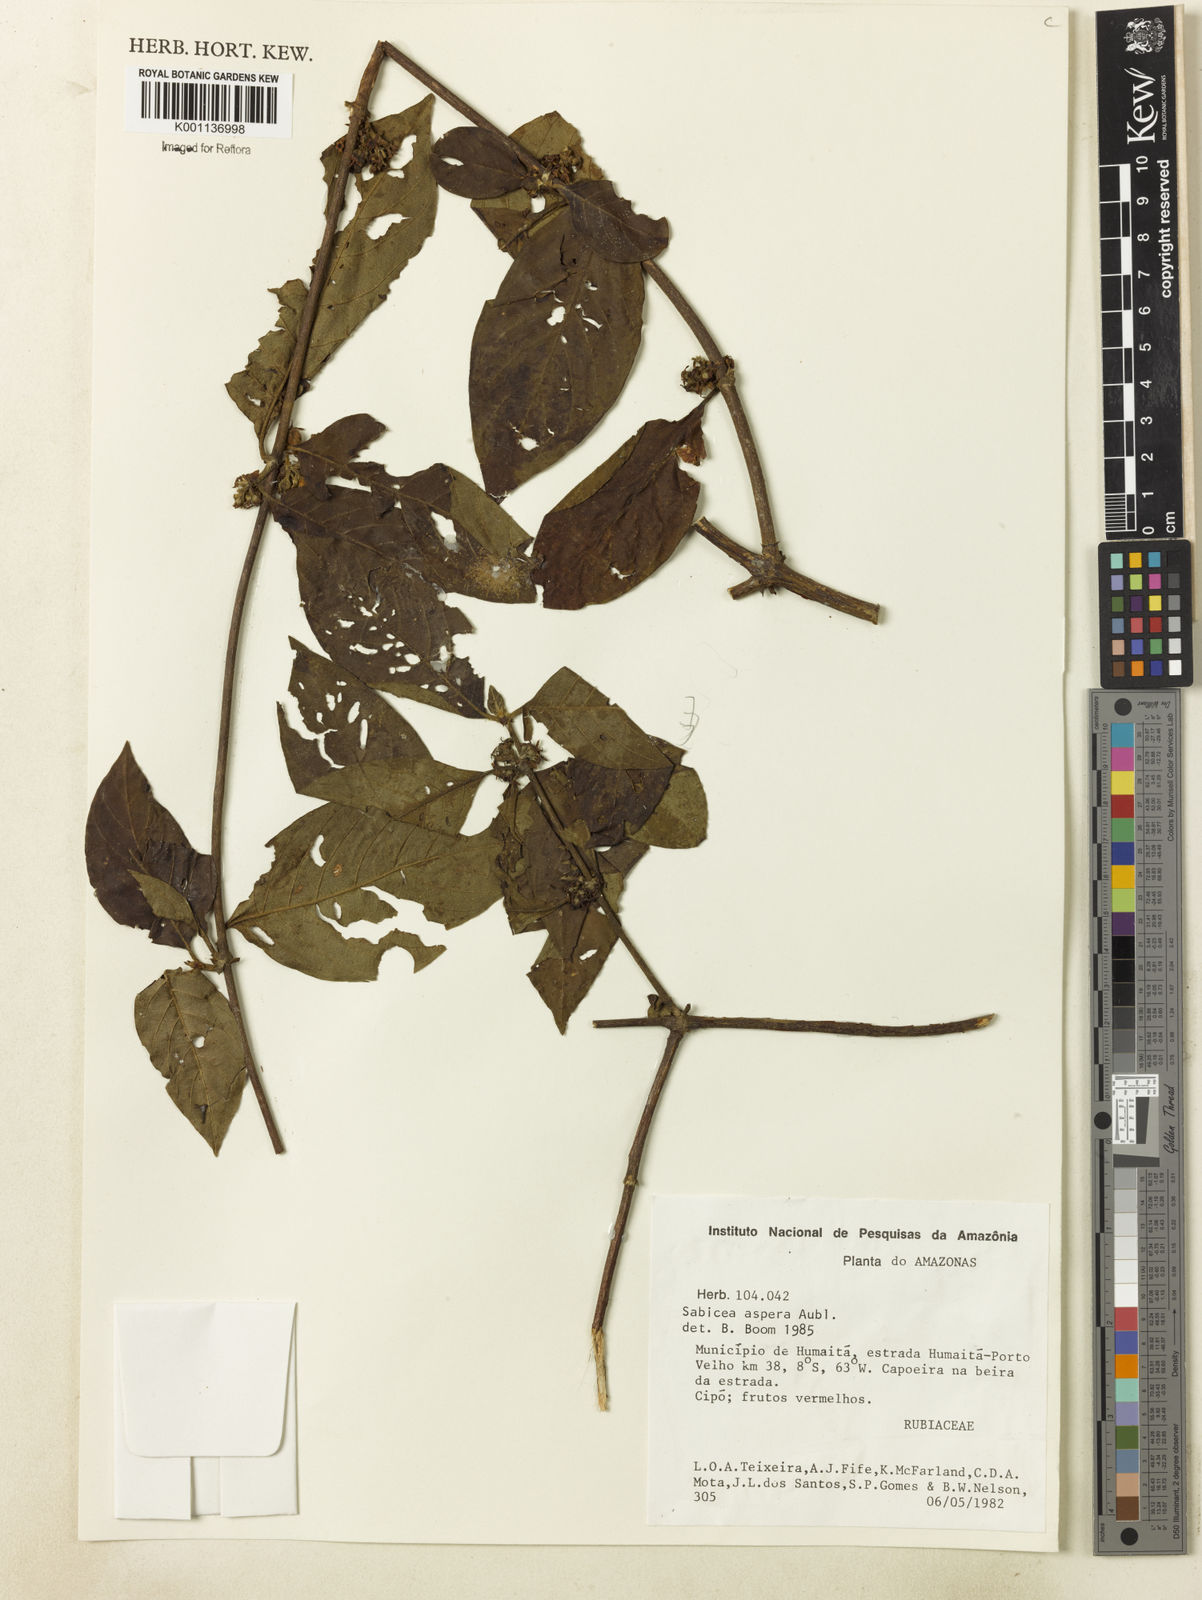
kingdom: Plantae
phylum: Tracheophyta
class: Magnoliopsida
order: Gentianales
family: Rubiaceae
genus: Sabicea
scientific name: Sabicea aspera
